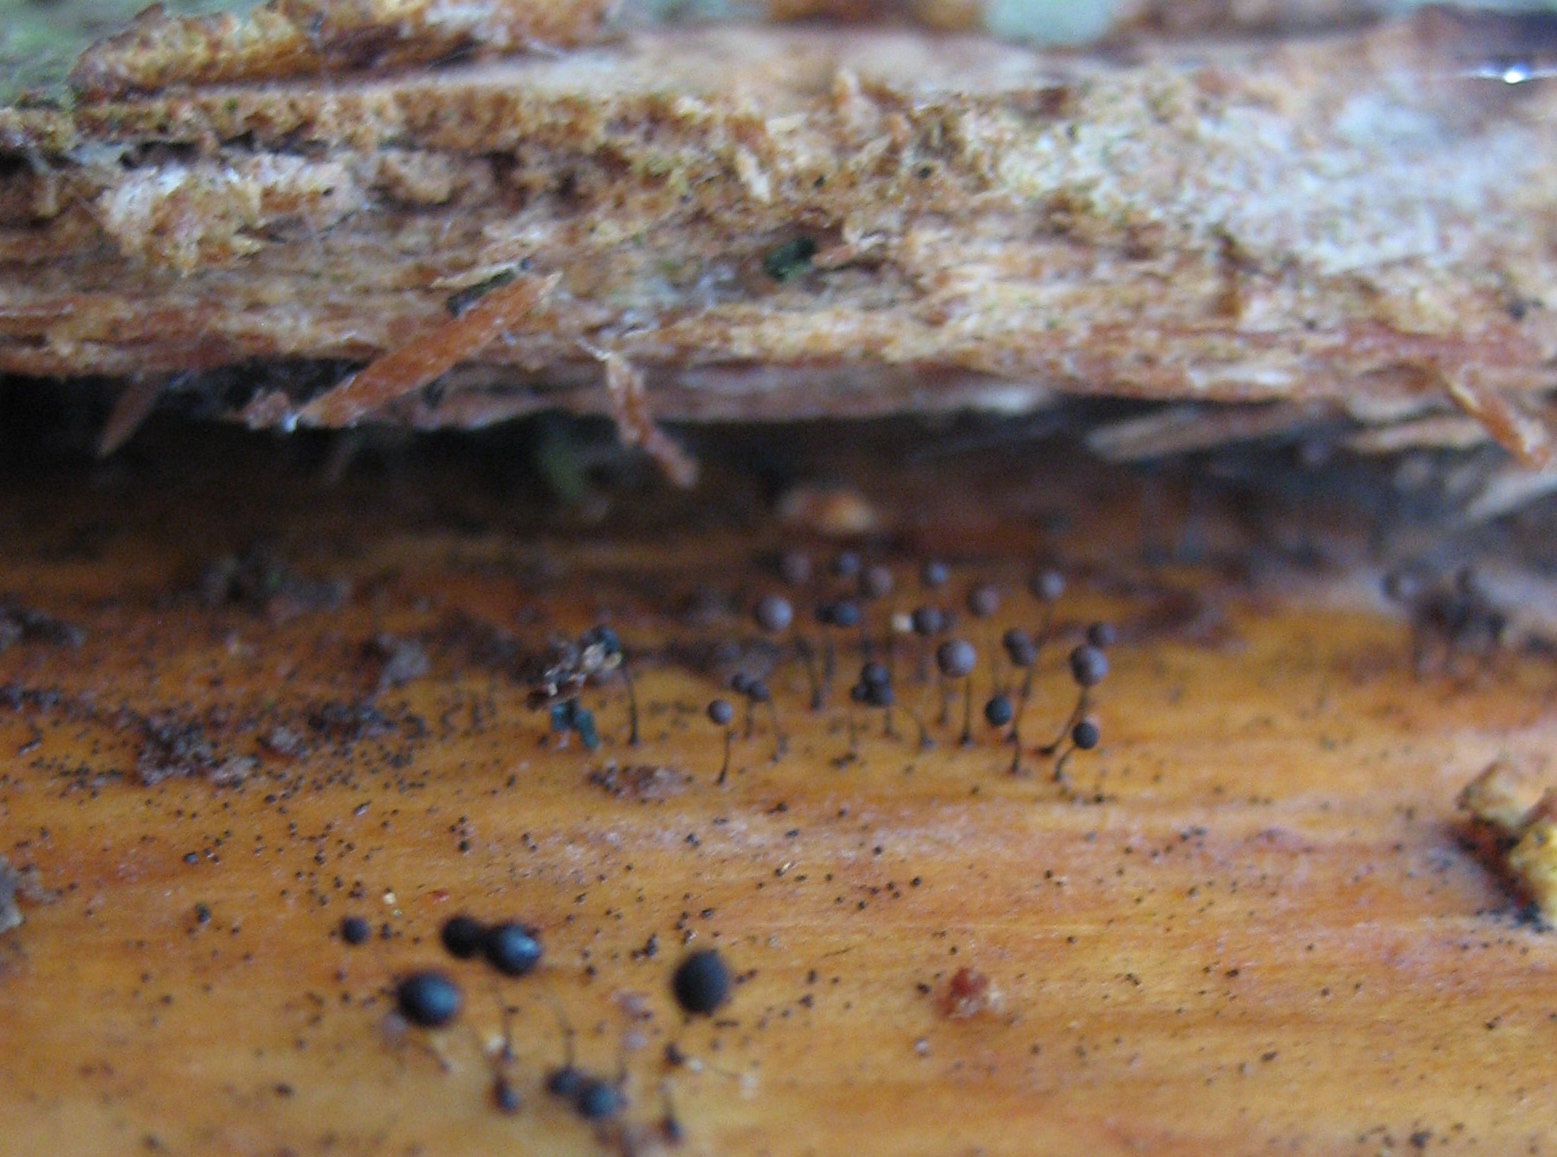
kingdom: Protozoa
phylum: Mycetozoa
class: Myxomycetes
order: Stemonitidales
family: Stemonitidaceae
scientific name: Stemonitidaceae
